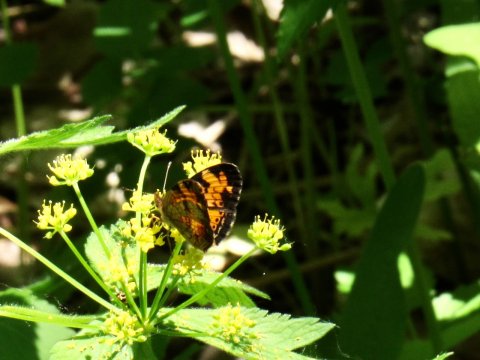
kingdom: Animalia
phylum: Arthropoda
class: Insecta
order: Lepidoptera
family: Nymphalidae
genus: Phyciodes
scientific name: Phyciodes tharos
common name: Pearl Crescent
